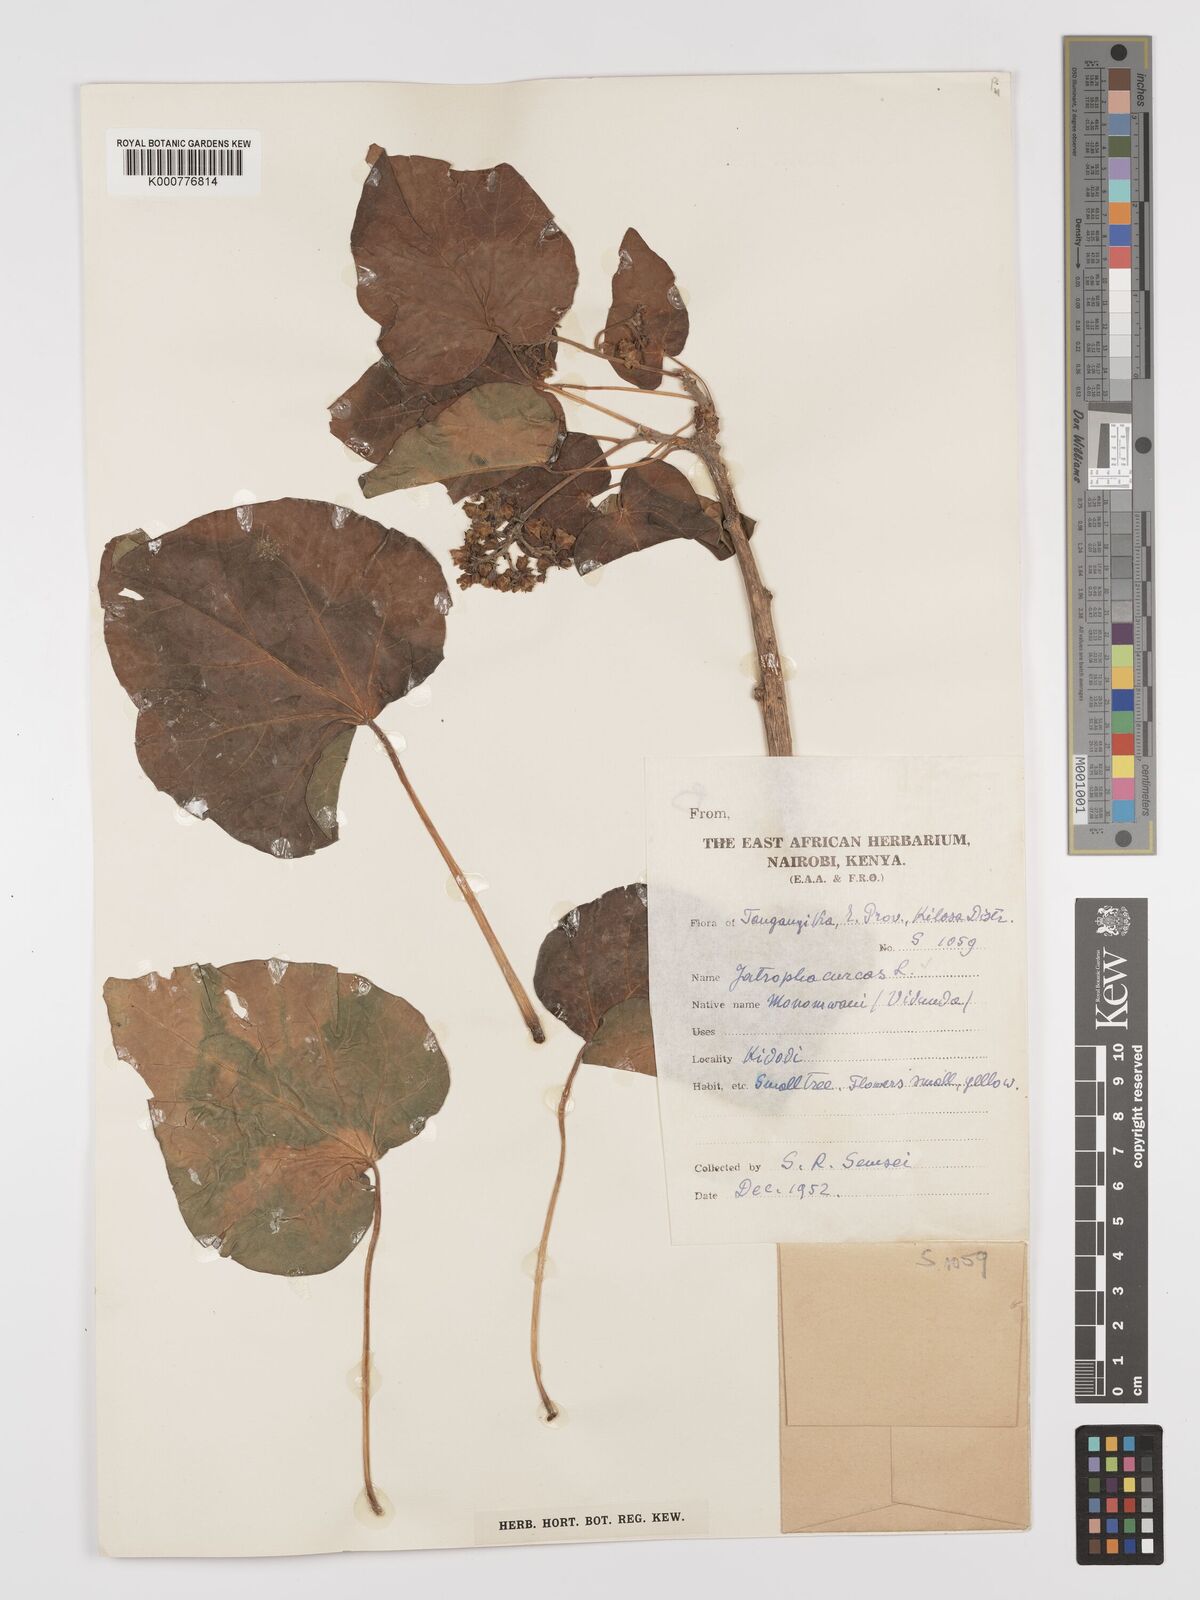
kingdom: Plantae
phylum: Tracheophyta
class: Magnoliopsida
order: Malpighiales
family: Euphorbiaceae
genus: Jatropha
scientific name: Jatropha curcas
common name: Barbados nut
